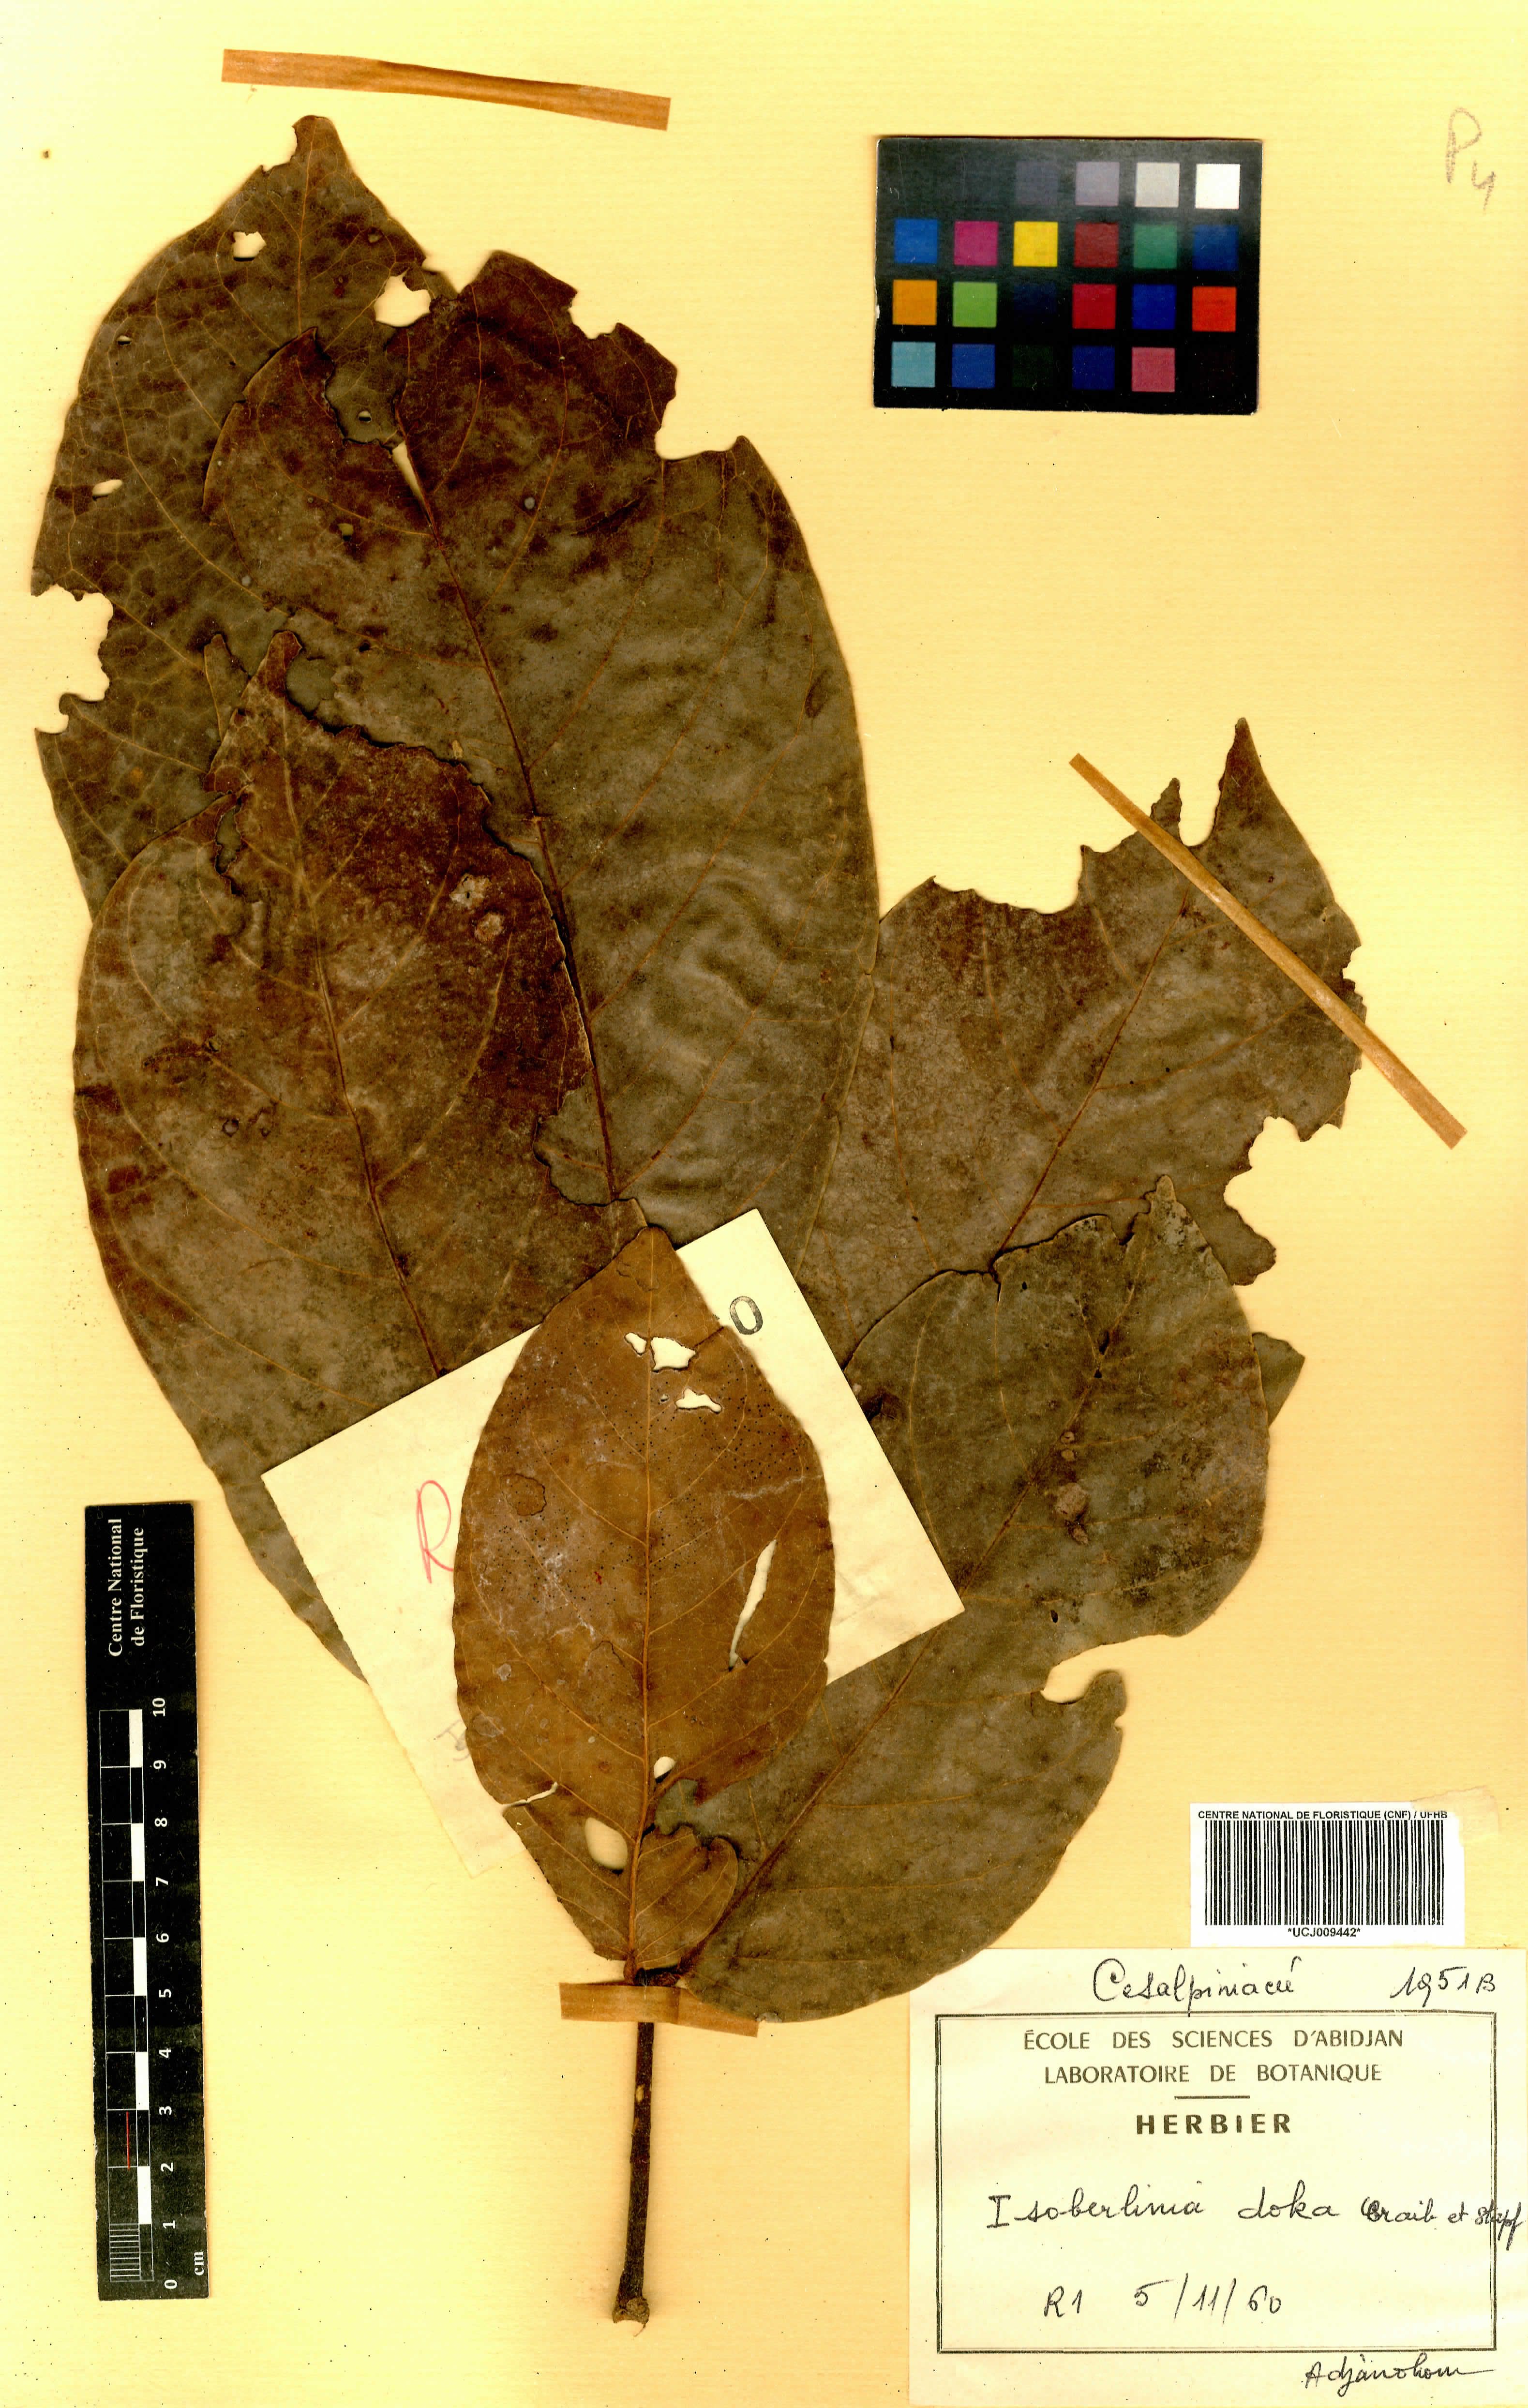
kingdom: Plantae
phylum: Tracheophyta
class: Magnoliopsida
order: Fabales
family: Fabaceae
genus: Isoberlinia
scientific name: Isoberlinia doka
